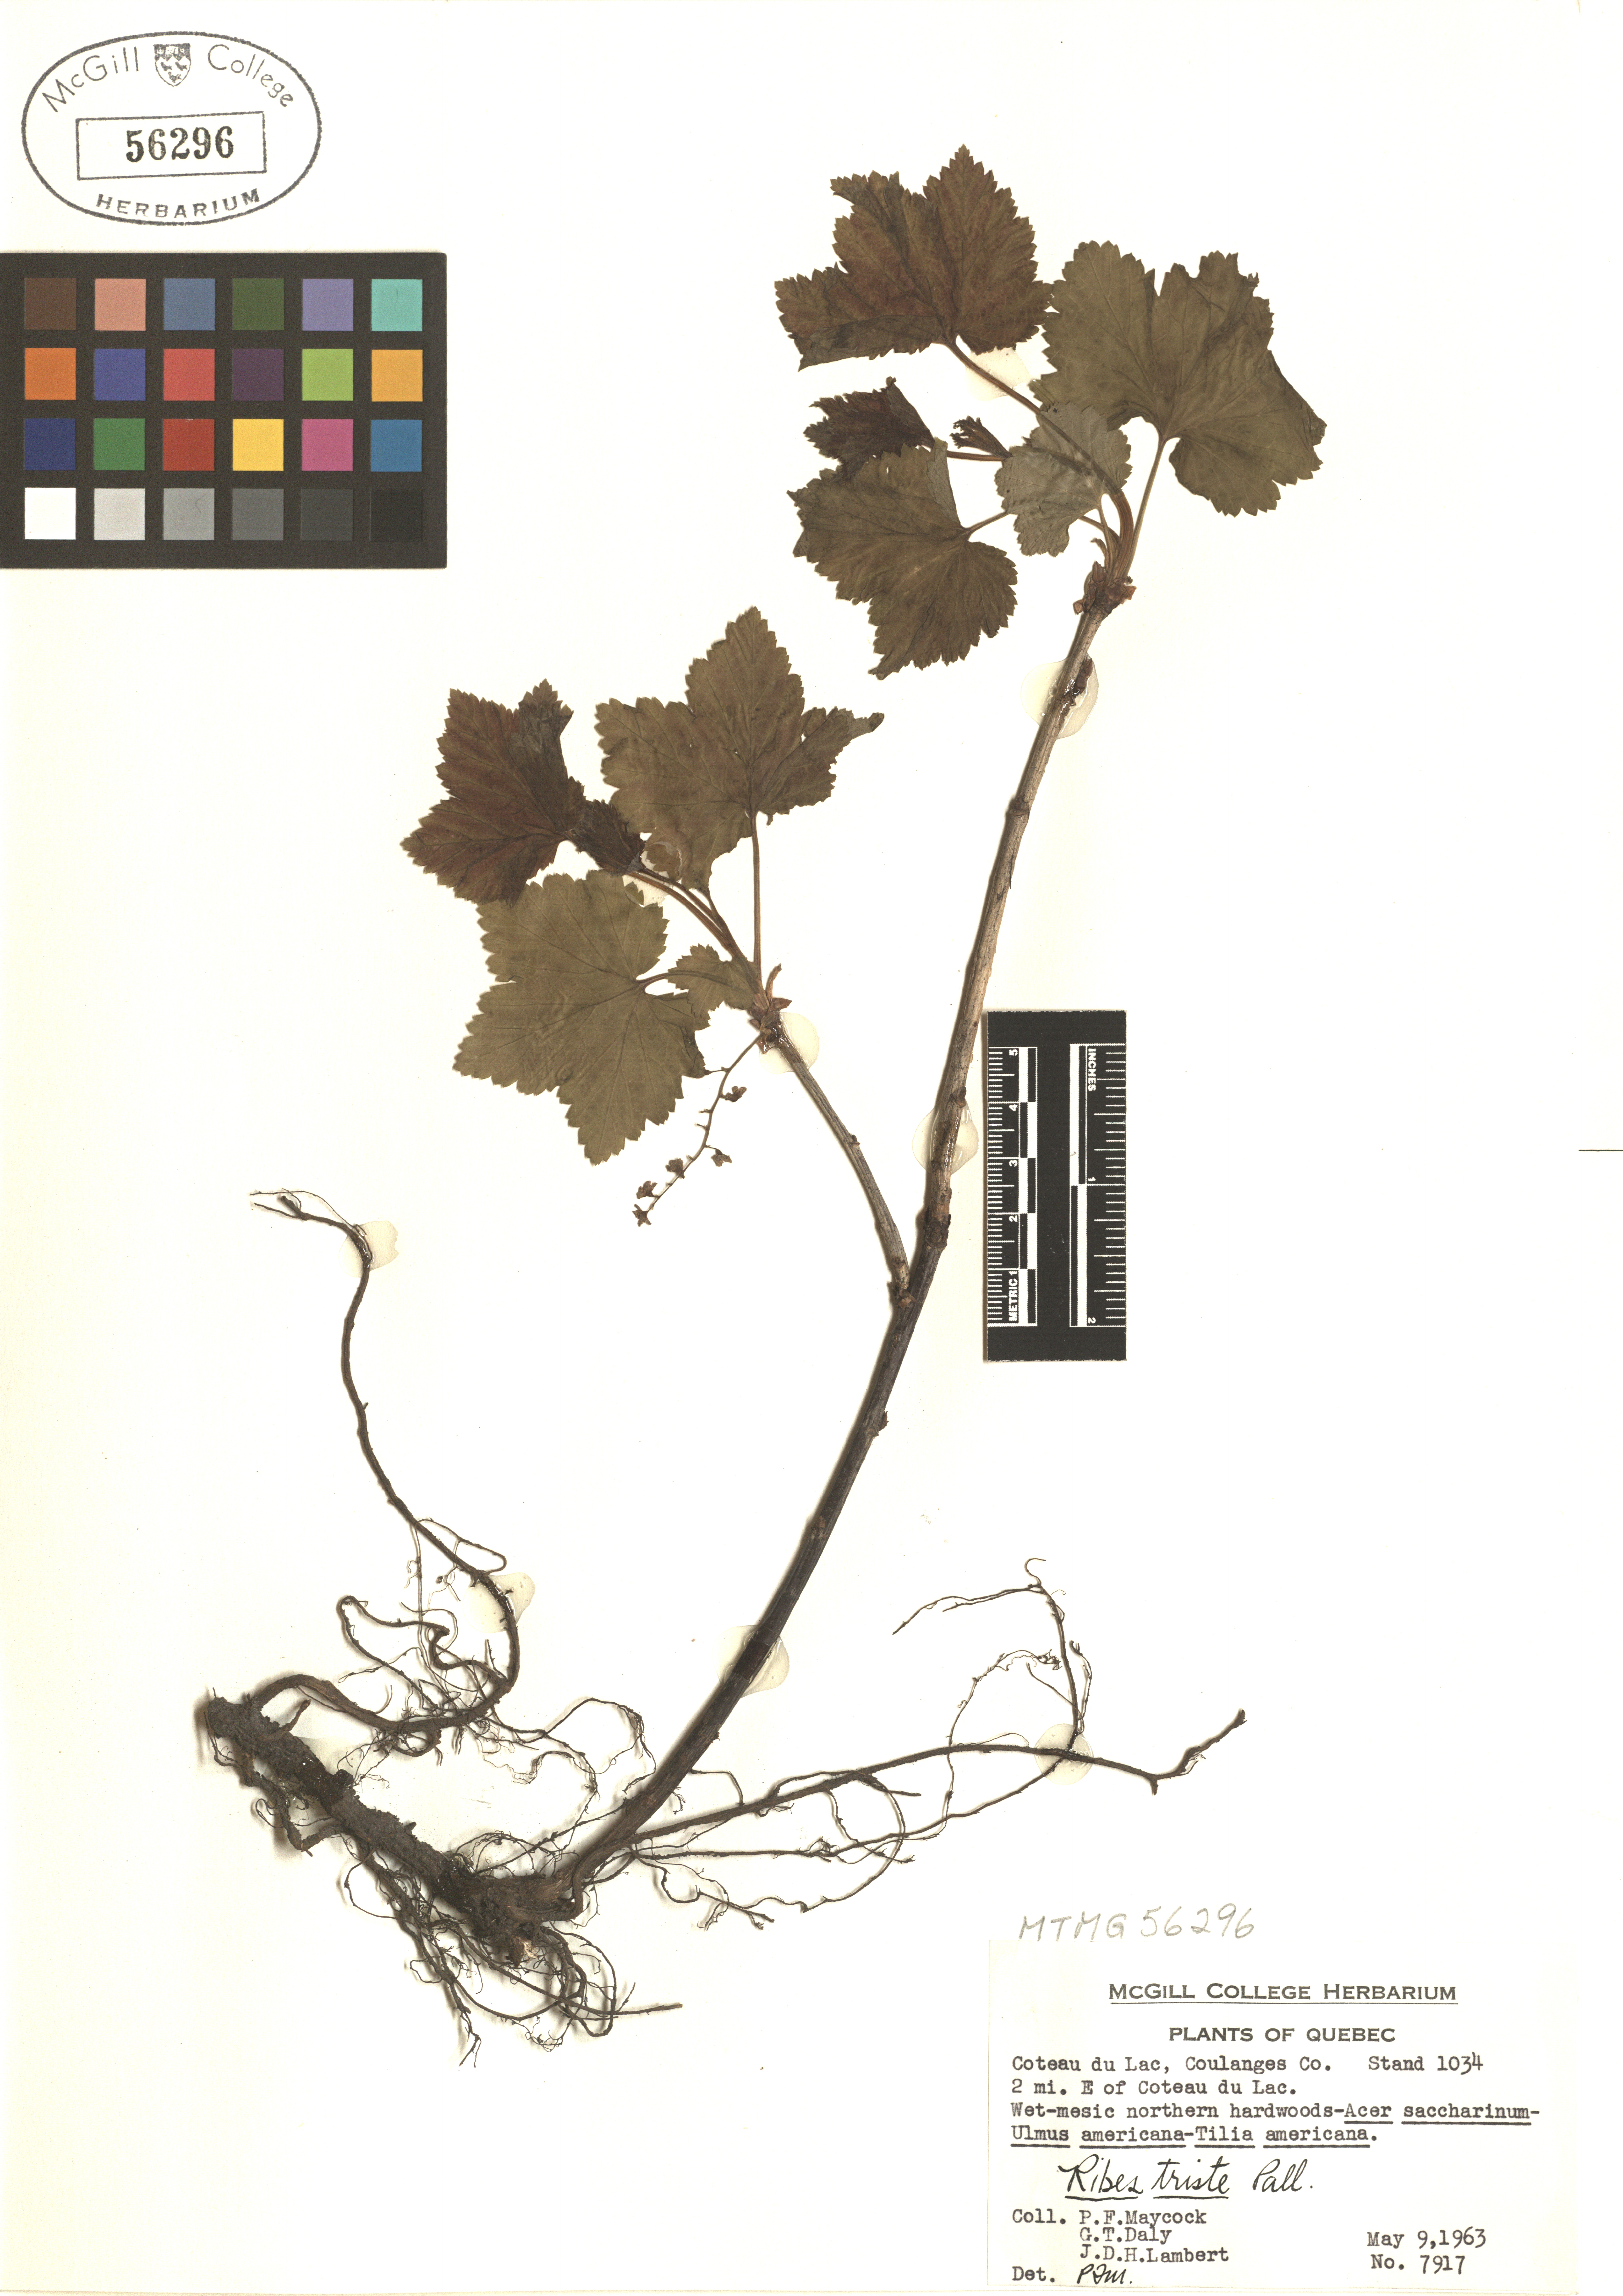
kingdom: Plantae
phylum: Tracheophyta
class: Magnoliopsida
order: Saxifragales
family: Grossulariaceae
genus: Ribes
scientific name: Ribes triste
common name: Swamp red currant
